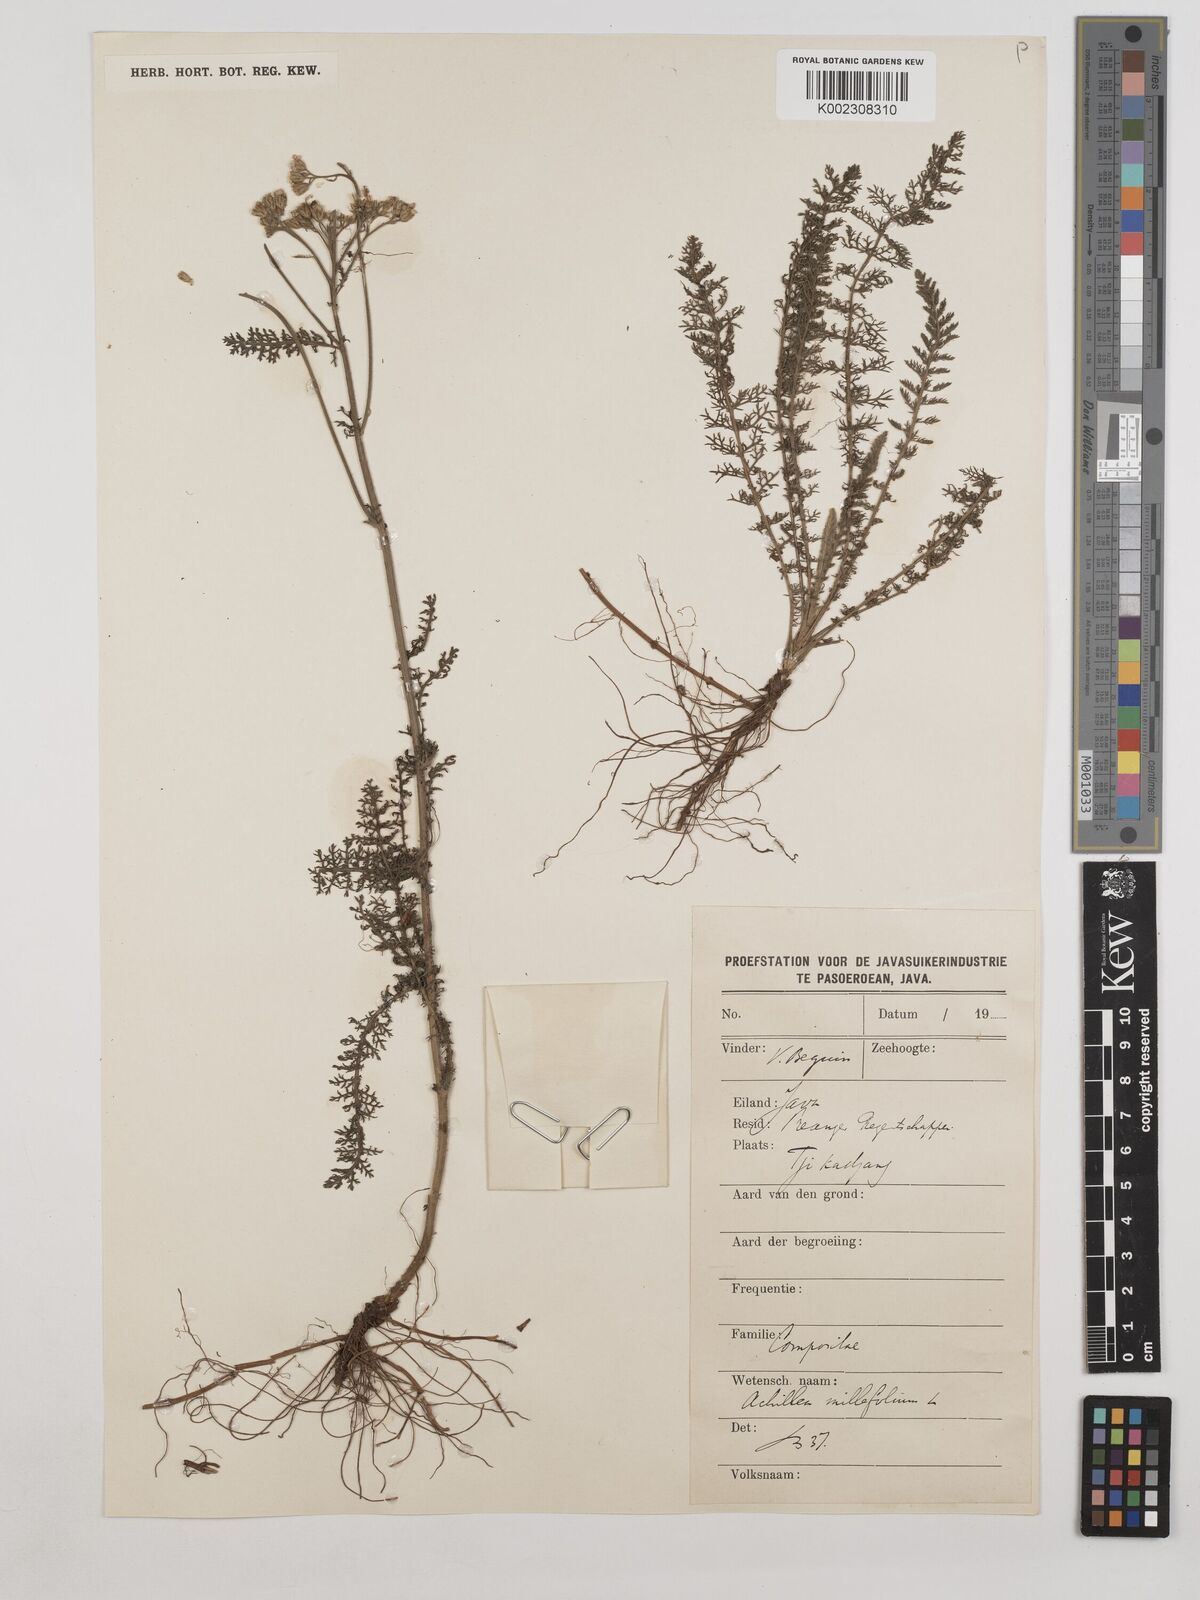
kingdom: Plantae
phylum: Tracheophyta
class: Magnoliopsida
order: Asterales
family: Asteraceae
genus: Achillea
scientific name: Achillea millefolium
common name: Yarrow
